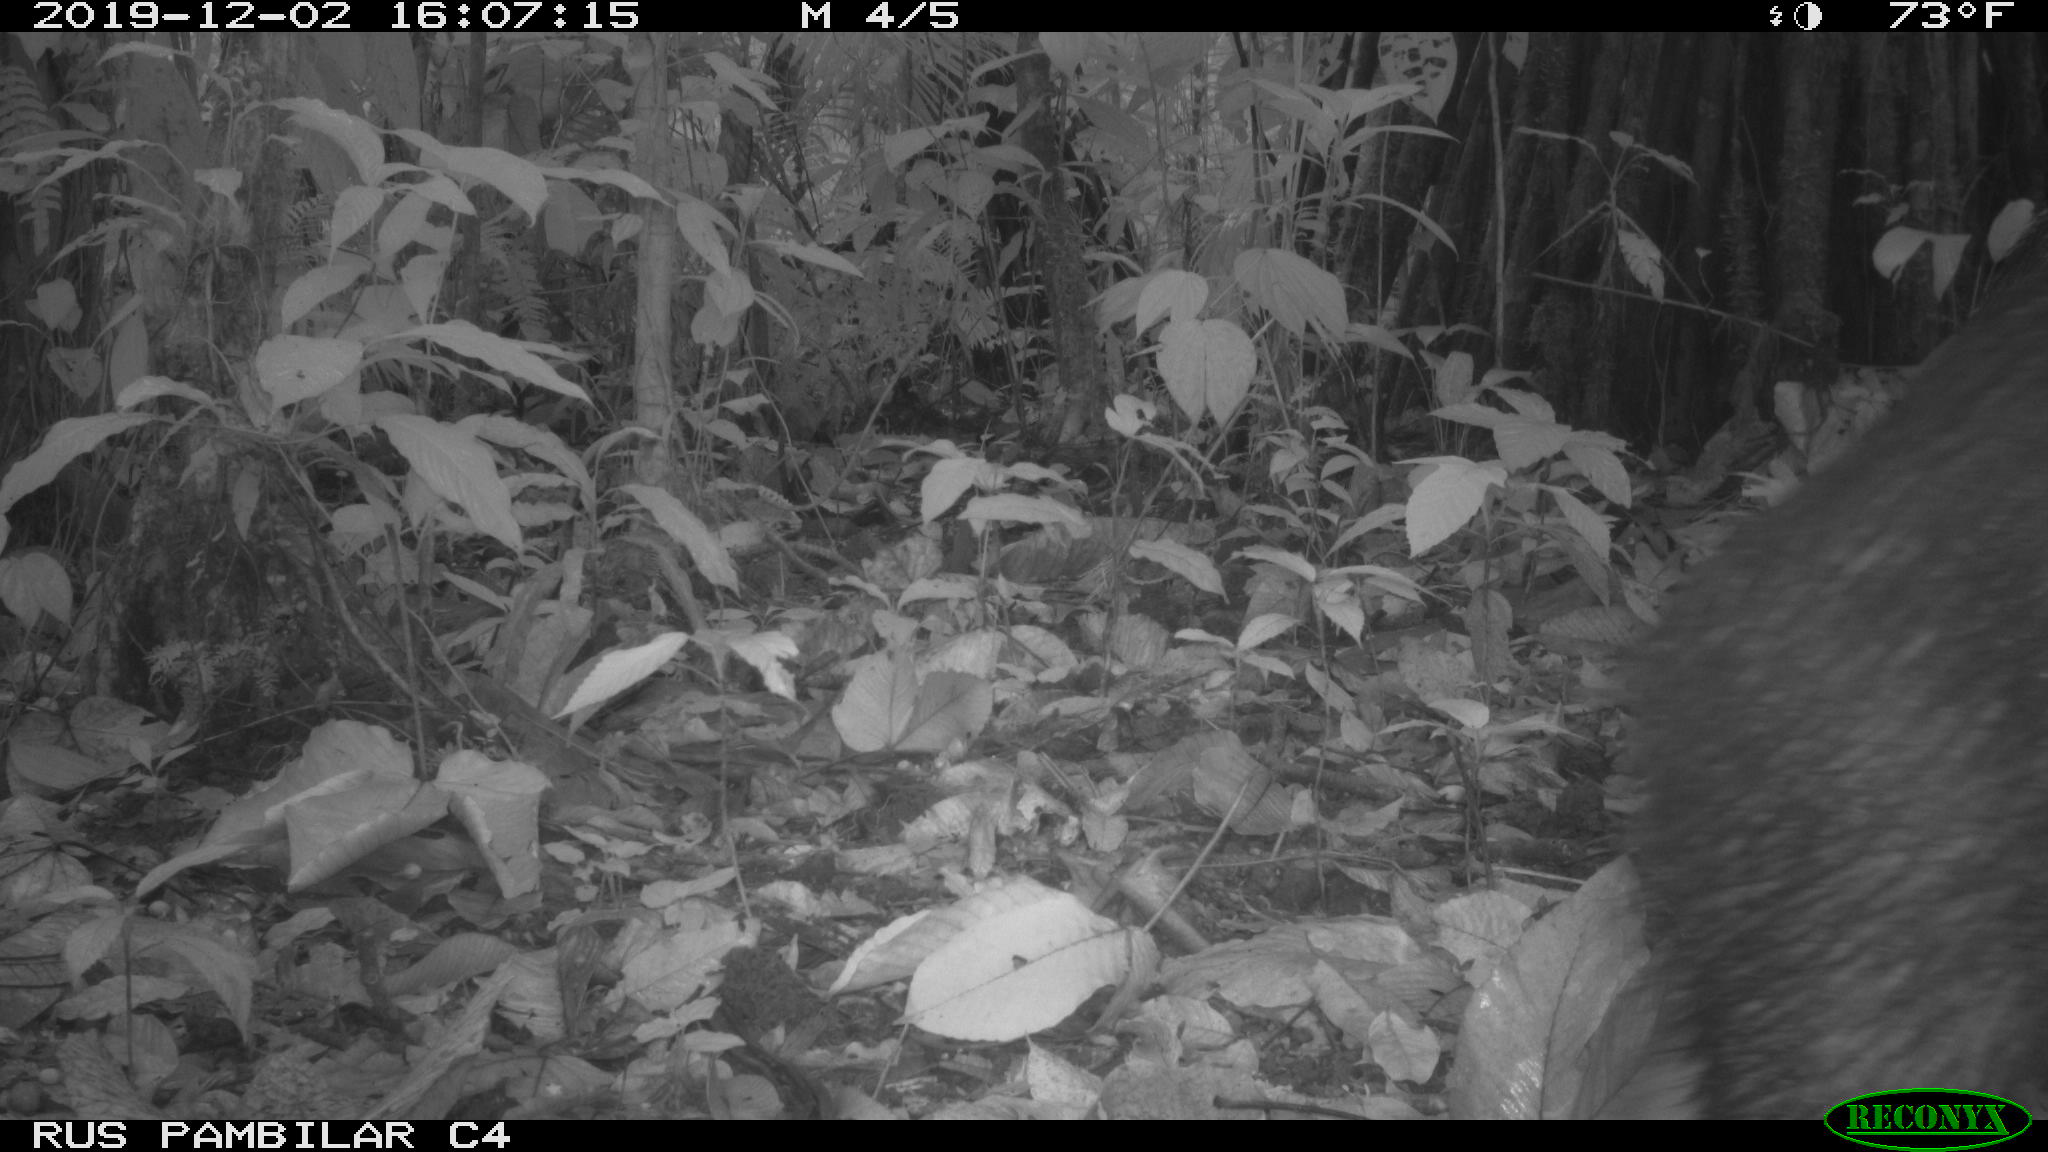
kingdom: Animalia
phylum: Chordata
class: Mammalia
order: Artiodactyla
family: Tayassuidae
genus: Tayassu
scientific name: Tayassu pecari
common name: White-lipped peccary
